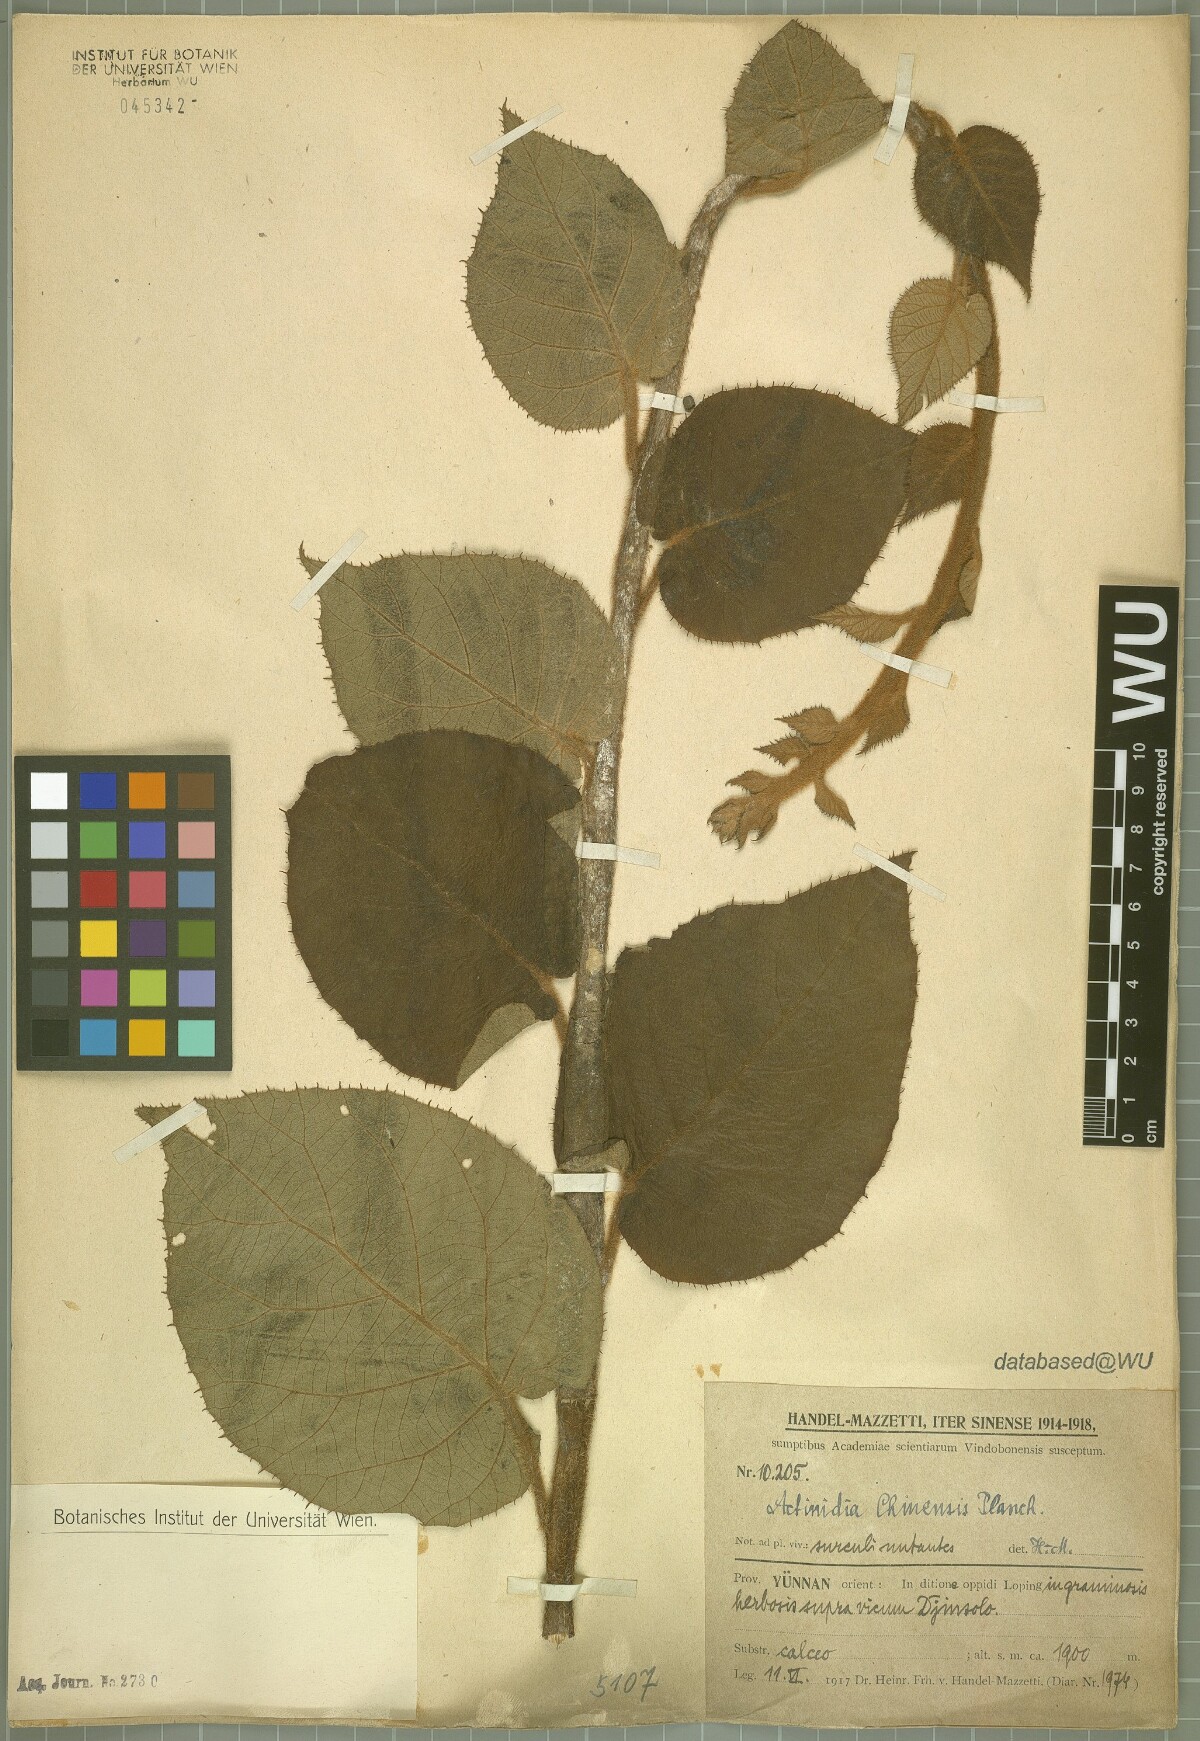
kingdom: Plantae
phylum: Tracheophyta
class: Magnoliopsida
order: Ericales
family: Actinidiaceae
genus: Actinidia
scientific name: Actinidia chinensis
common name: Kiwi
